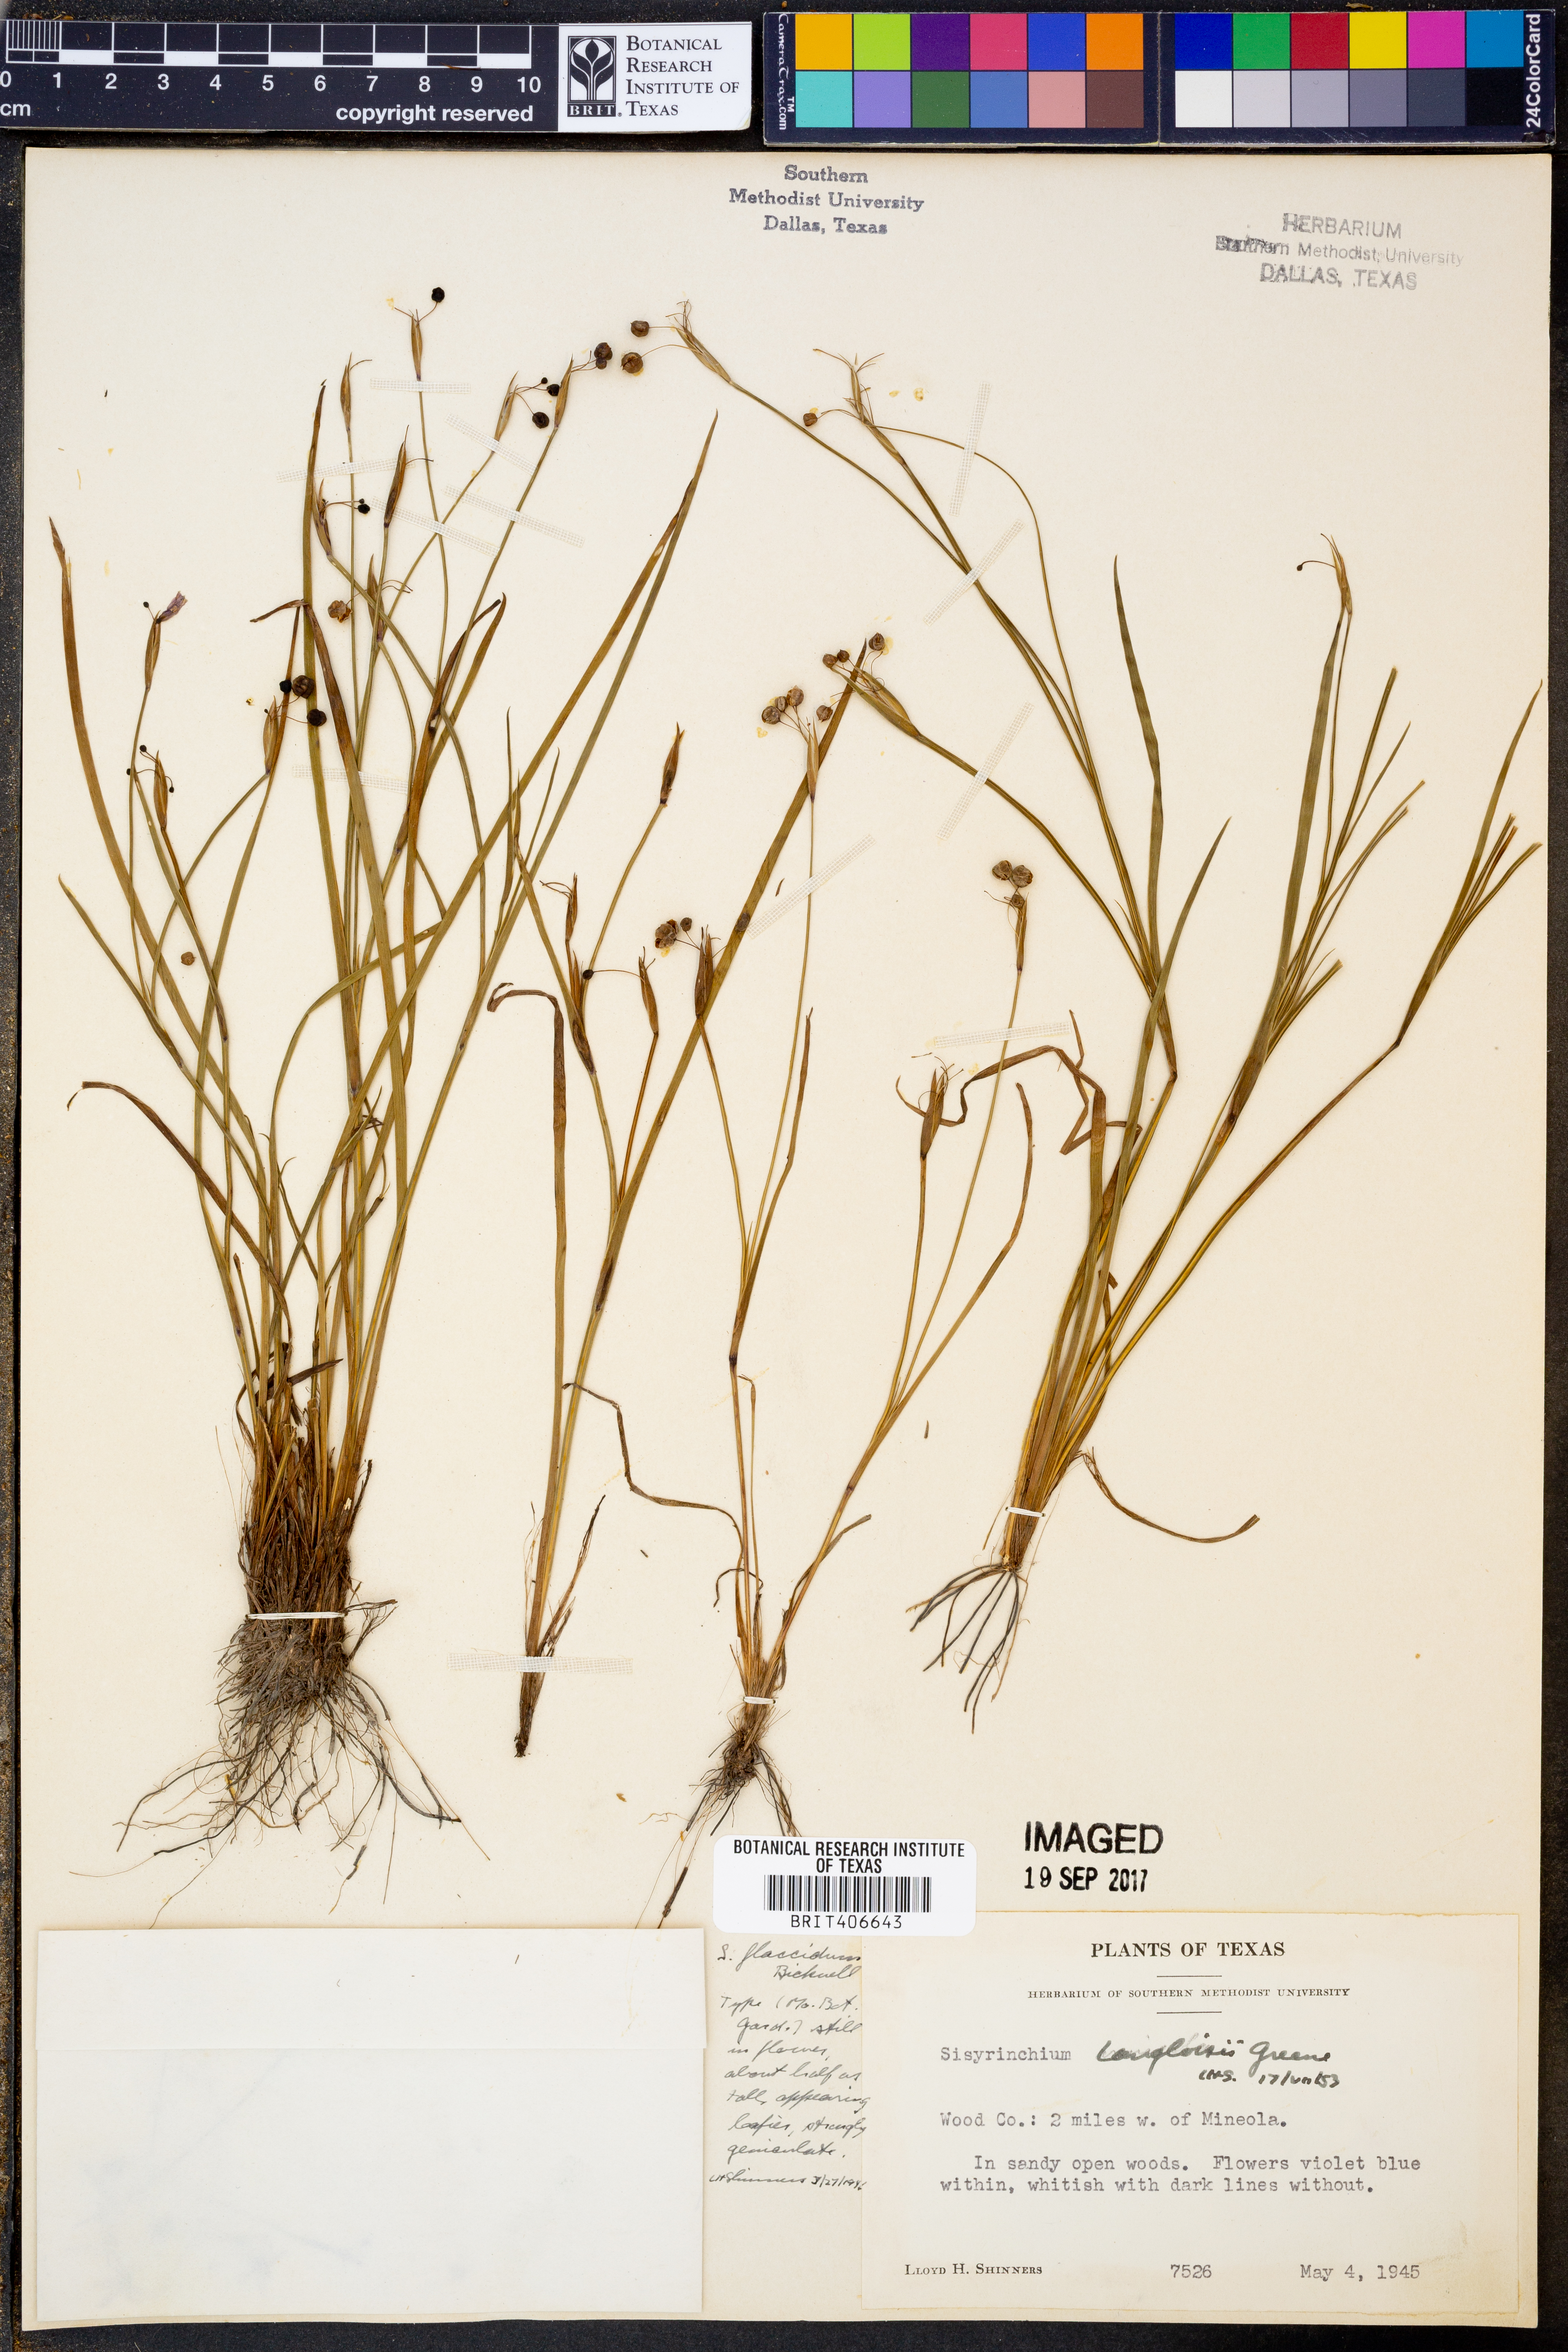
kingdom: Plantae
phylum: Tracheophyta
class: Liliopsida
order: Asparagales
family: Iridaceae
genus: Sisyrinchium
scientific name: Sisyrinchium langloisii
